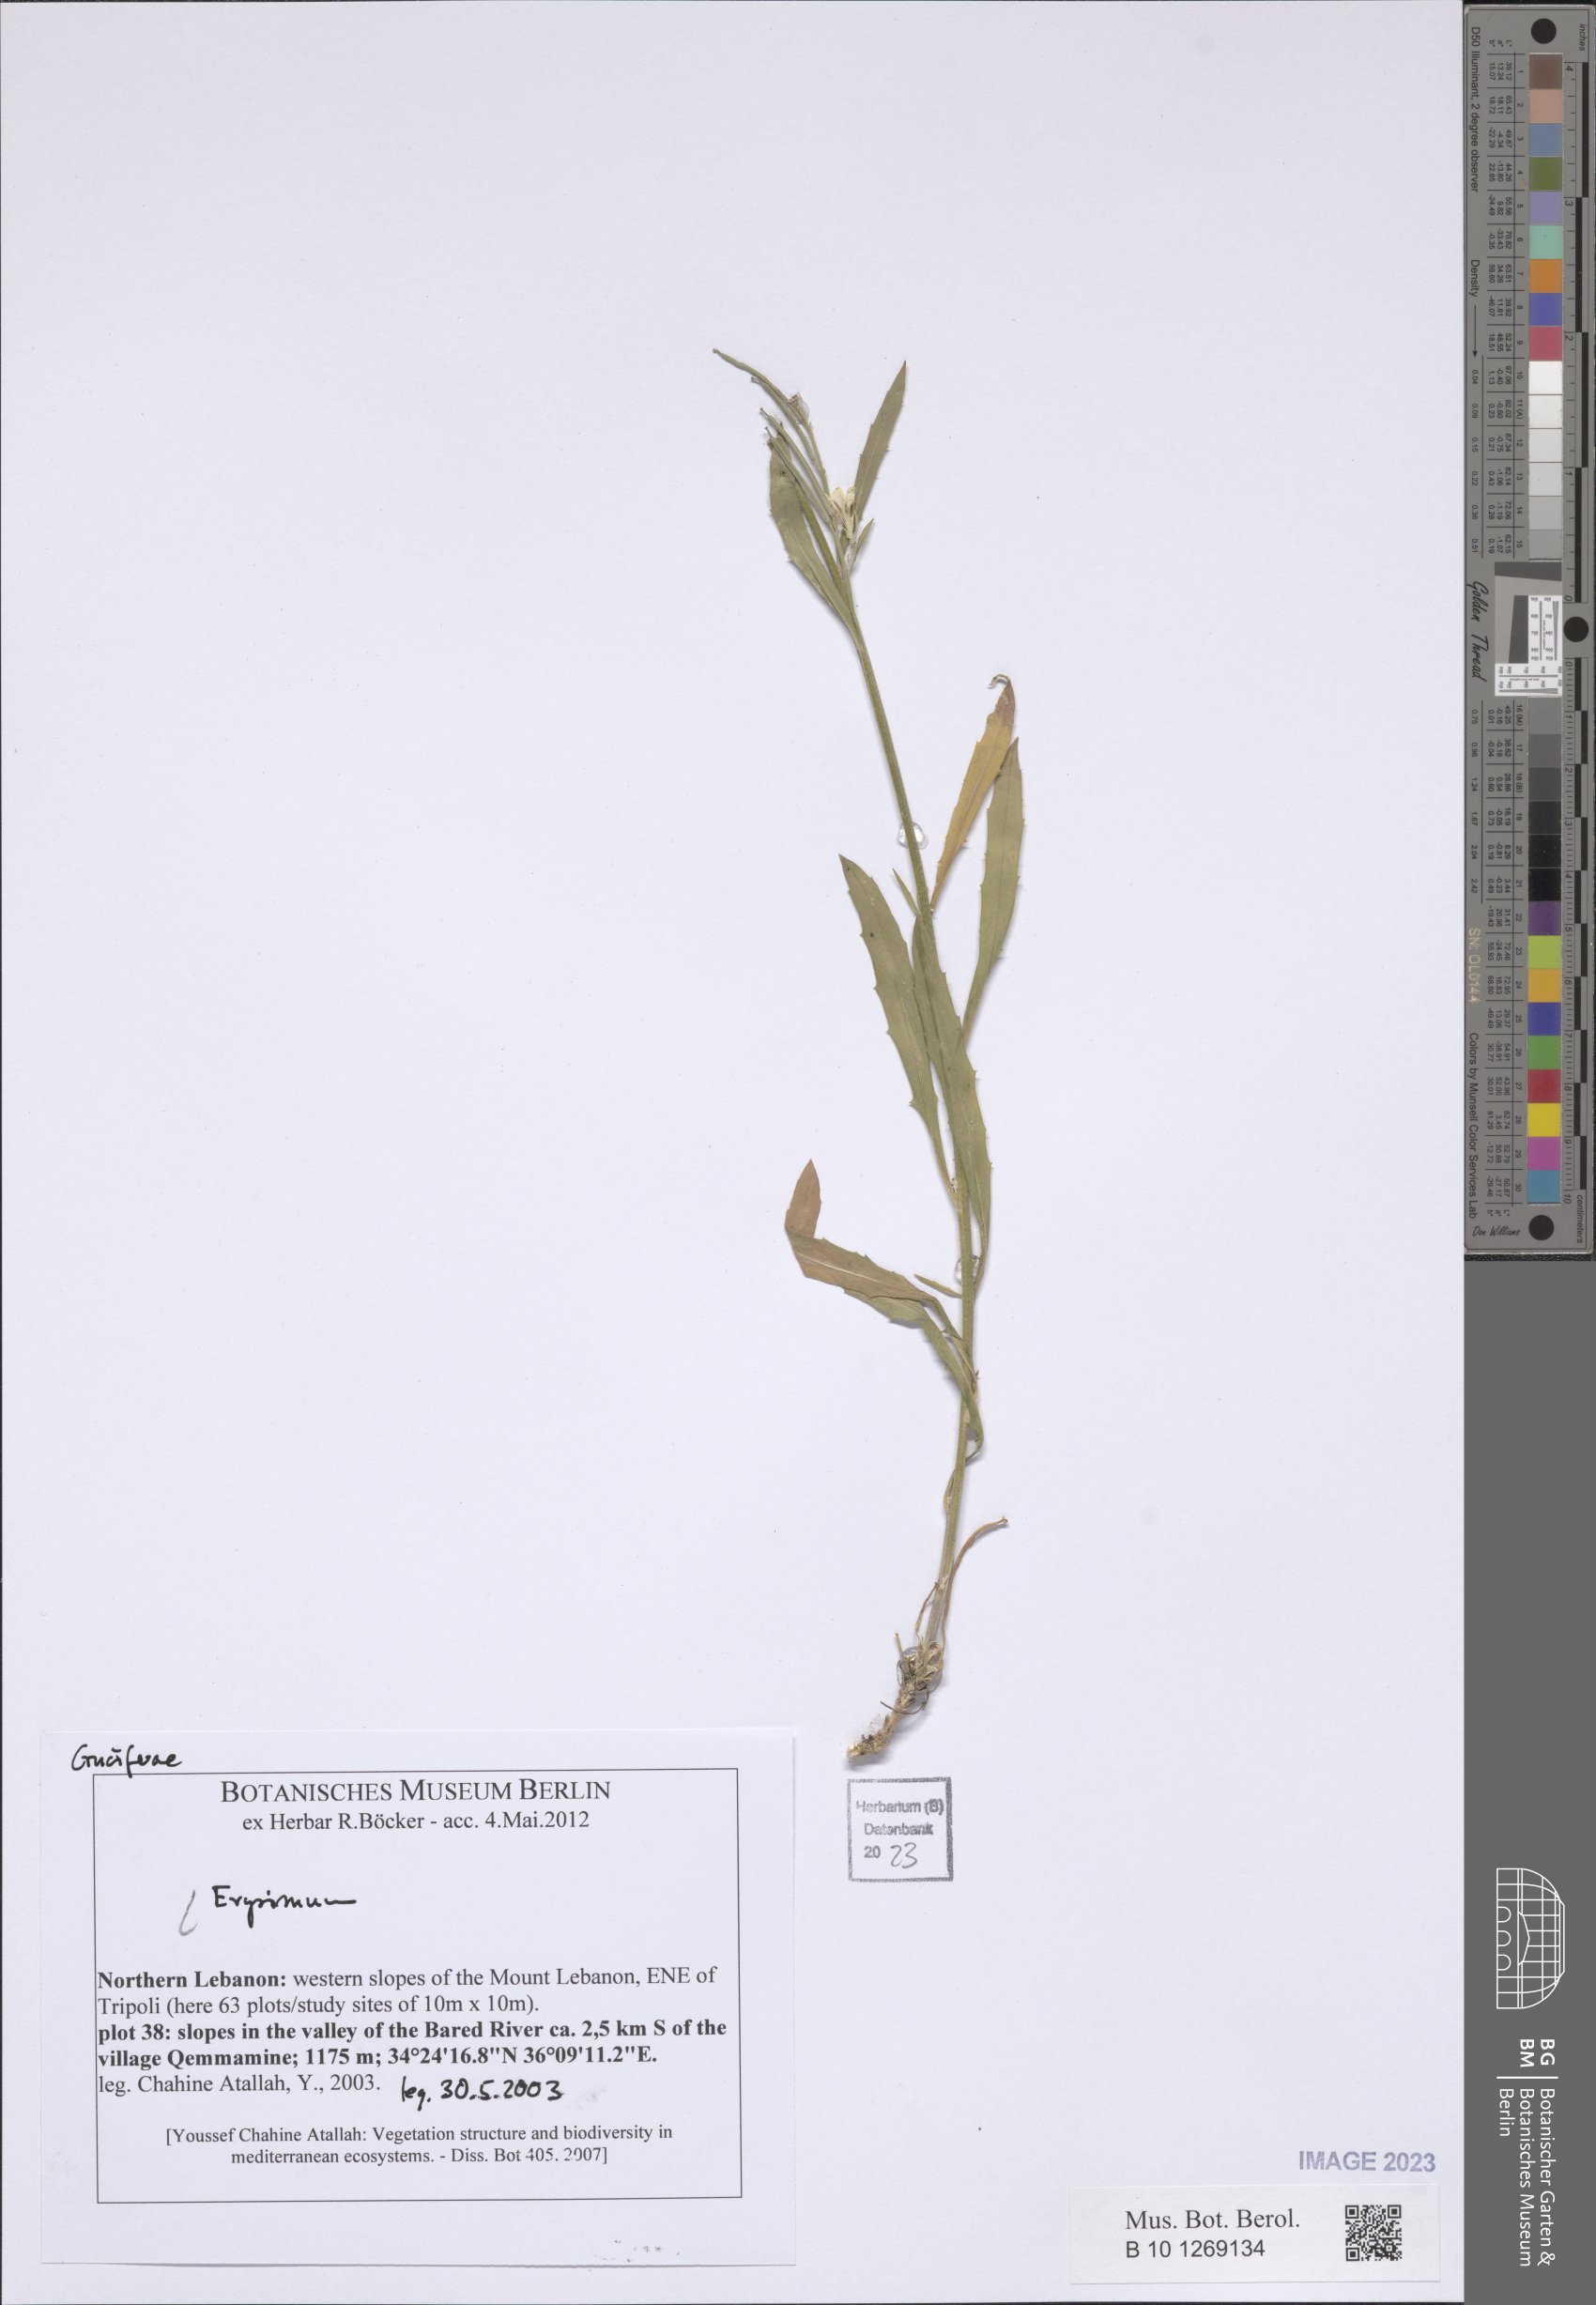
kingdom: Plantae
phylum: Tracheophyta
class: Magnoliopsida
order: Brassicales
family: Brassicaceae
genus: Erysimum
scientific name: Erysimum
